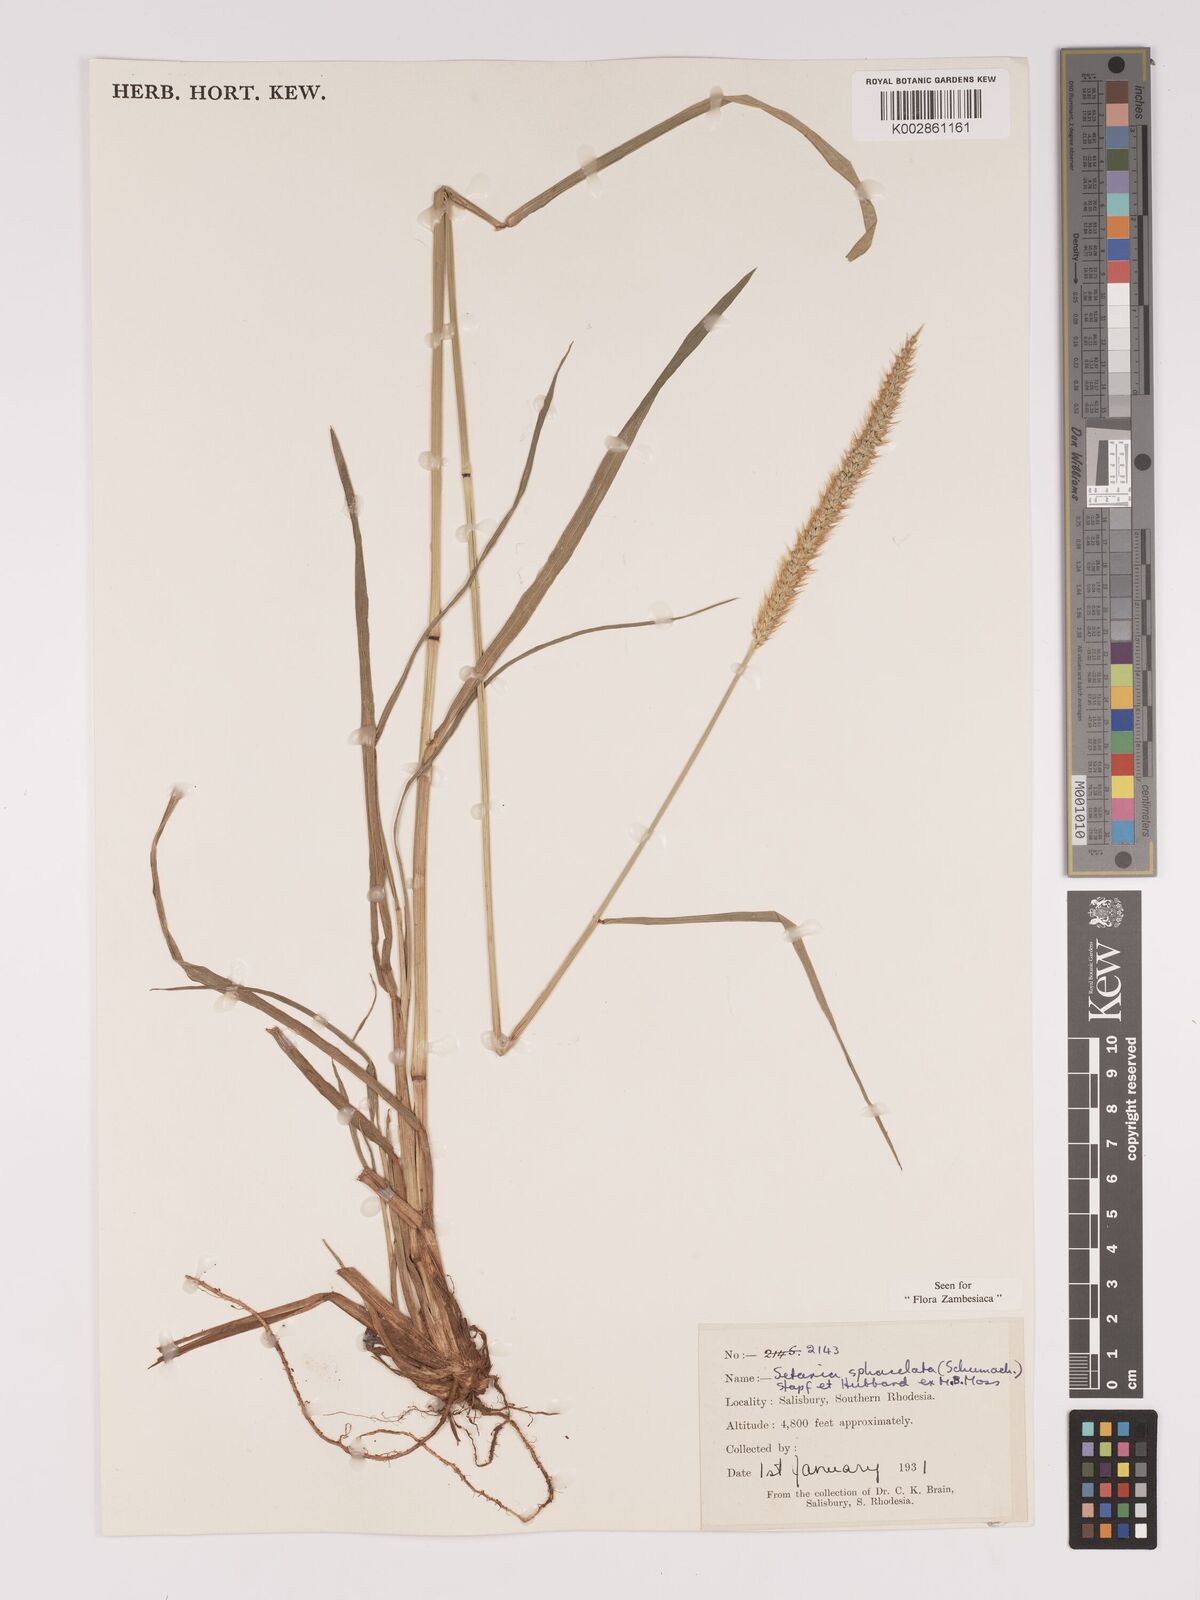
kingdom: Plantae
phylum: Tracheophyta
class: Liliopsida
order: Poales
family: Poaceae
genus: Setaria
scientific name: Setaria sphacelata
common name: African bristlegrass
